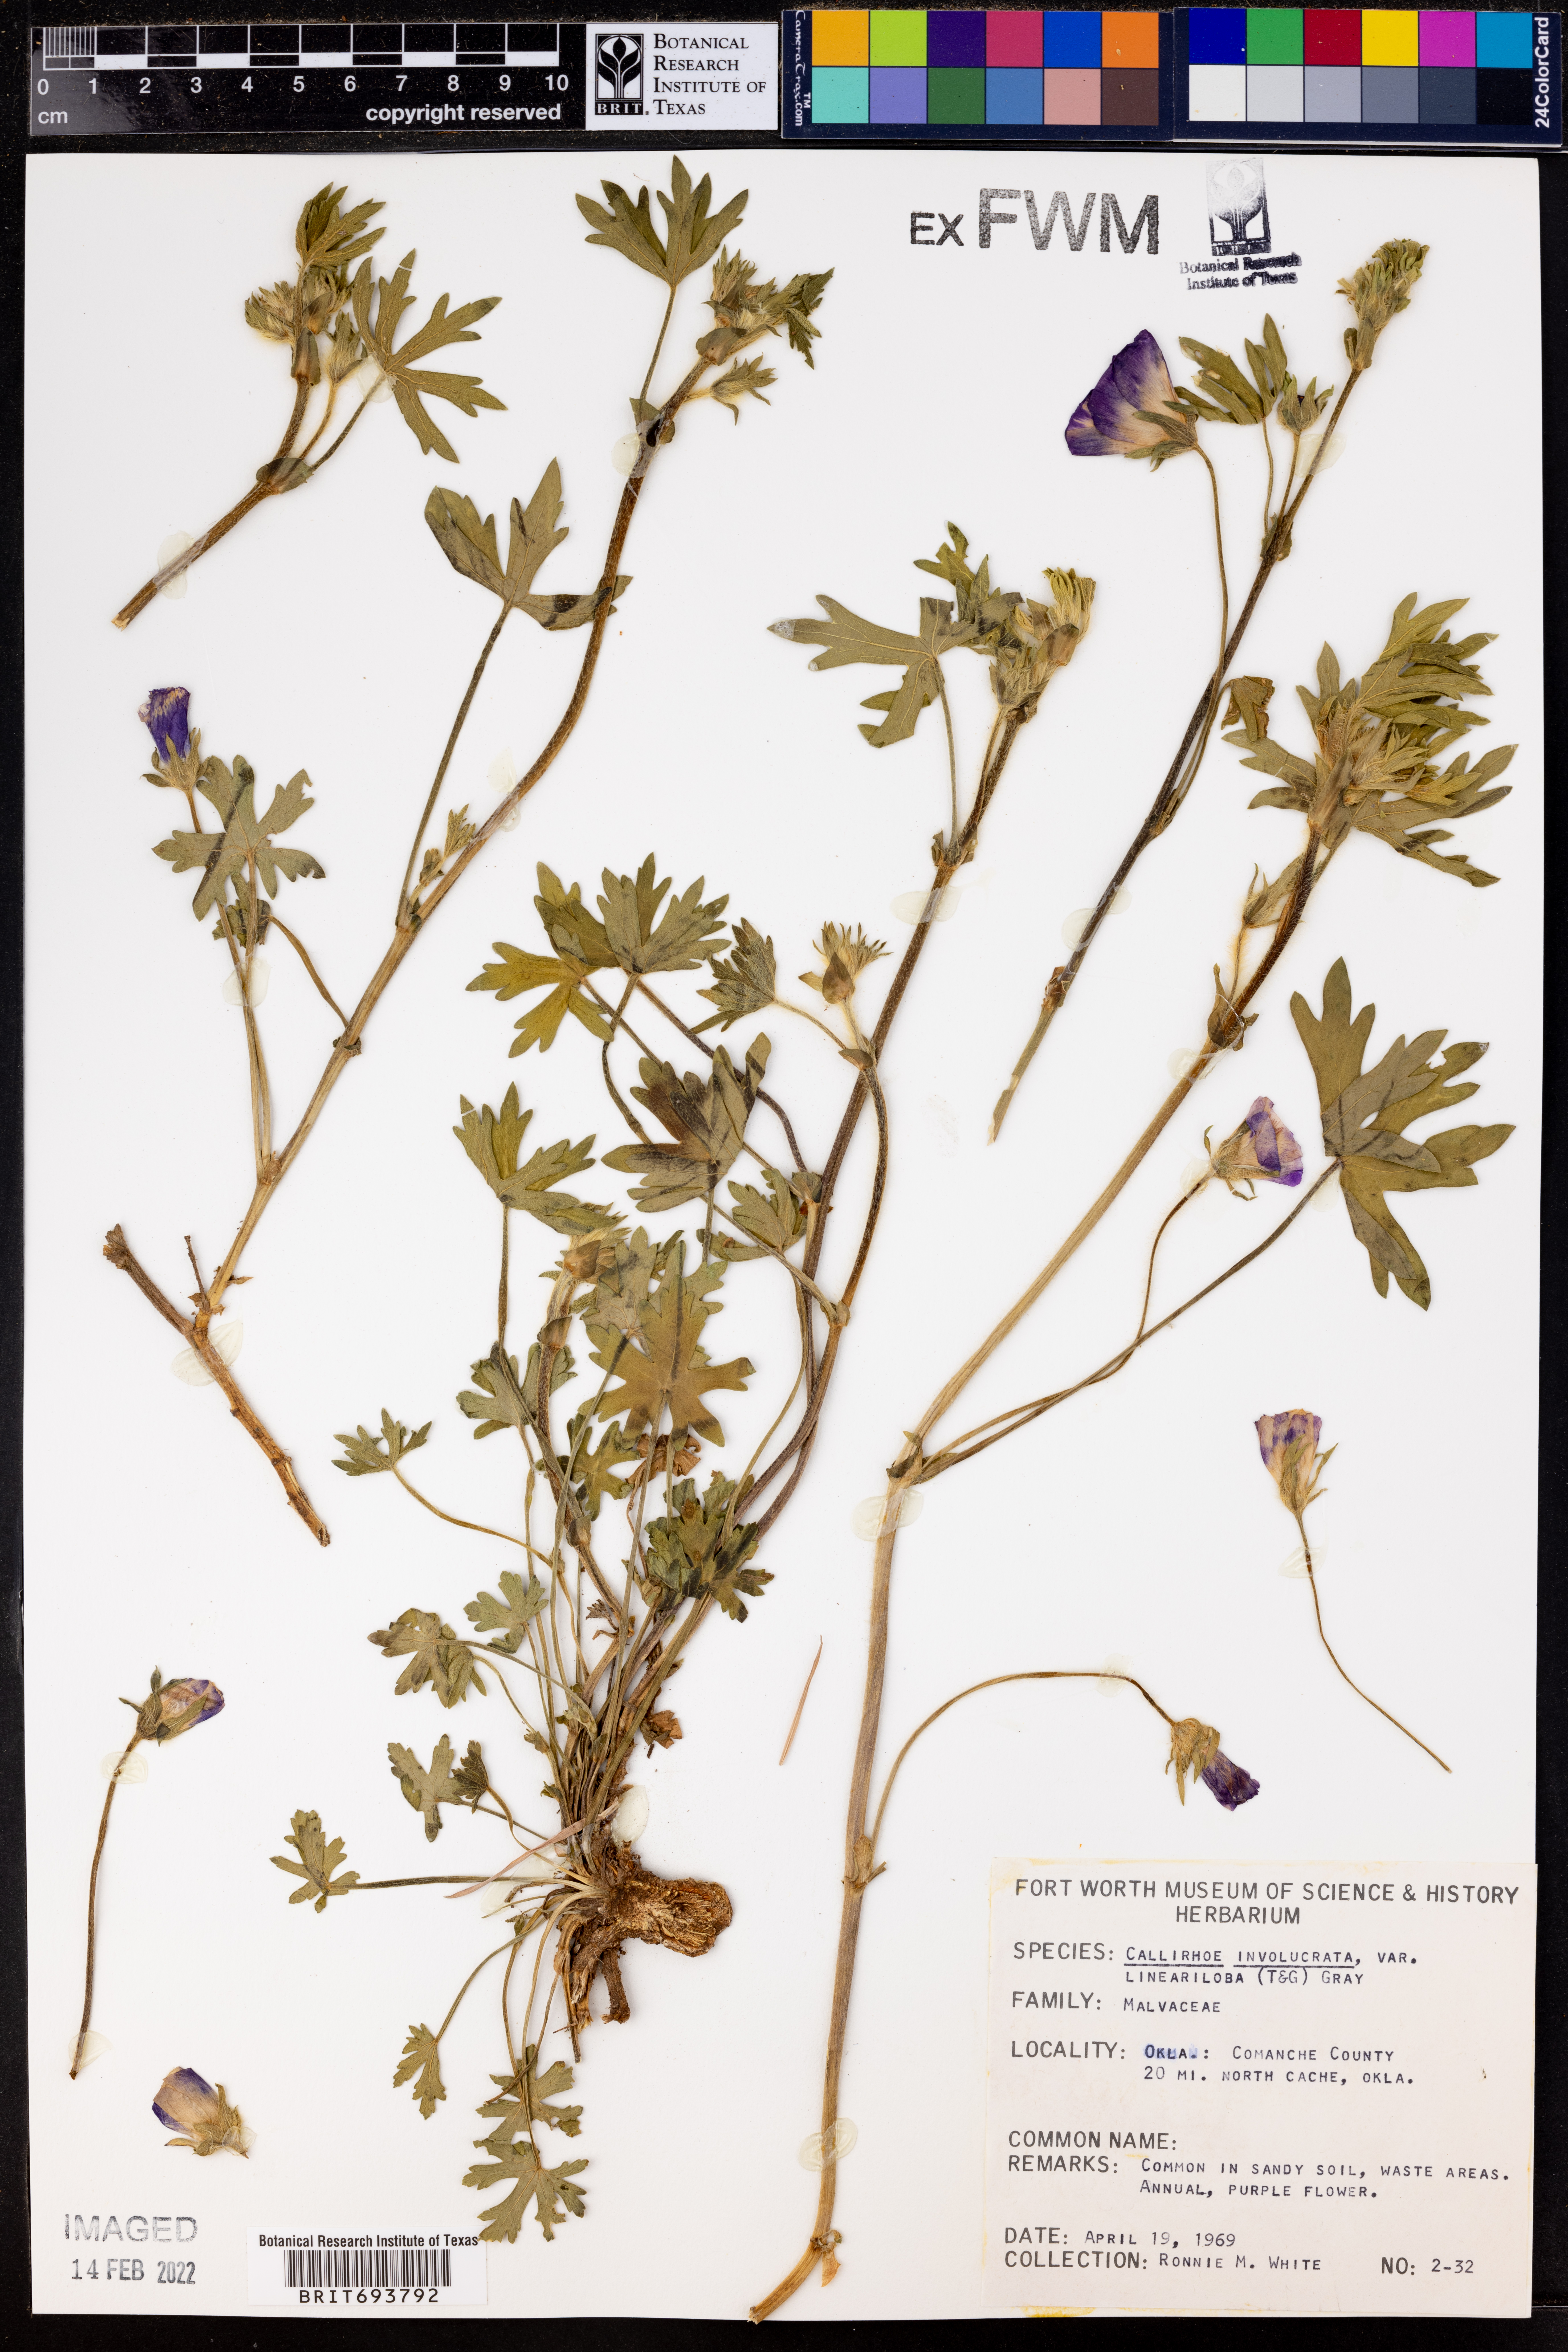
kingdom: Plantae
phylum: Tracheophyta
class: Magnoliopsida
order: Malvales
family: Malvaceae
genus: Callirhoe
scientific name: Callirhoe involucrata
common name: Purple poppy-mallow
